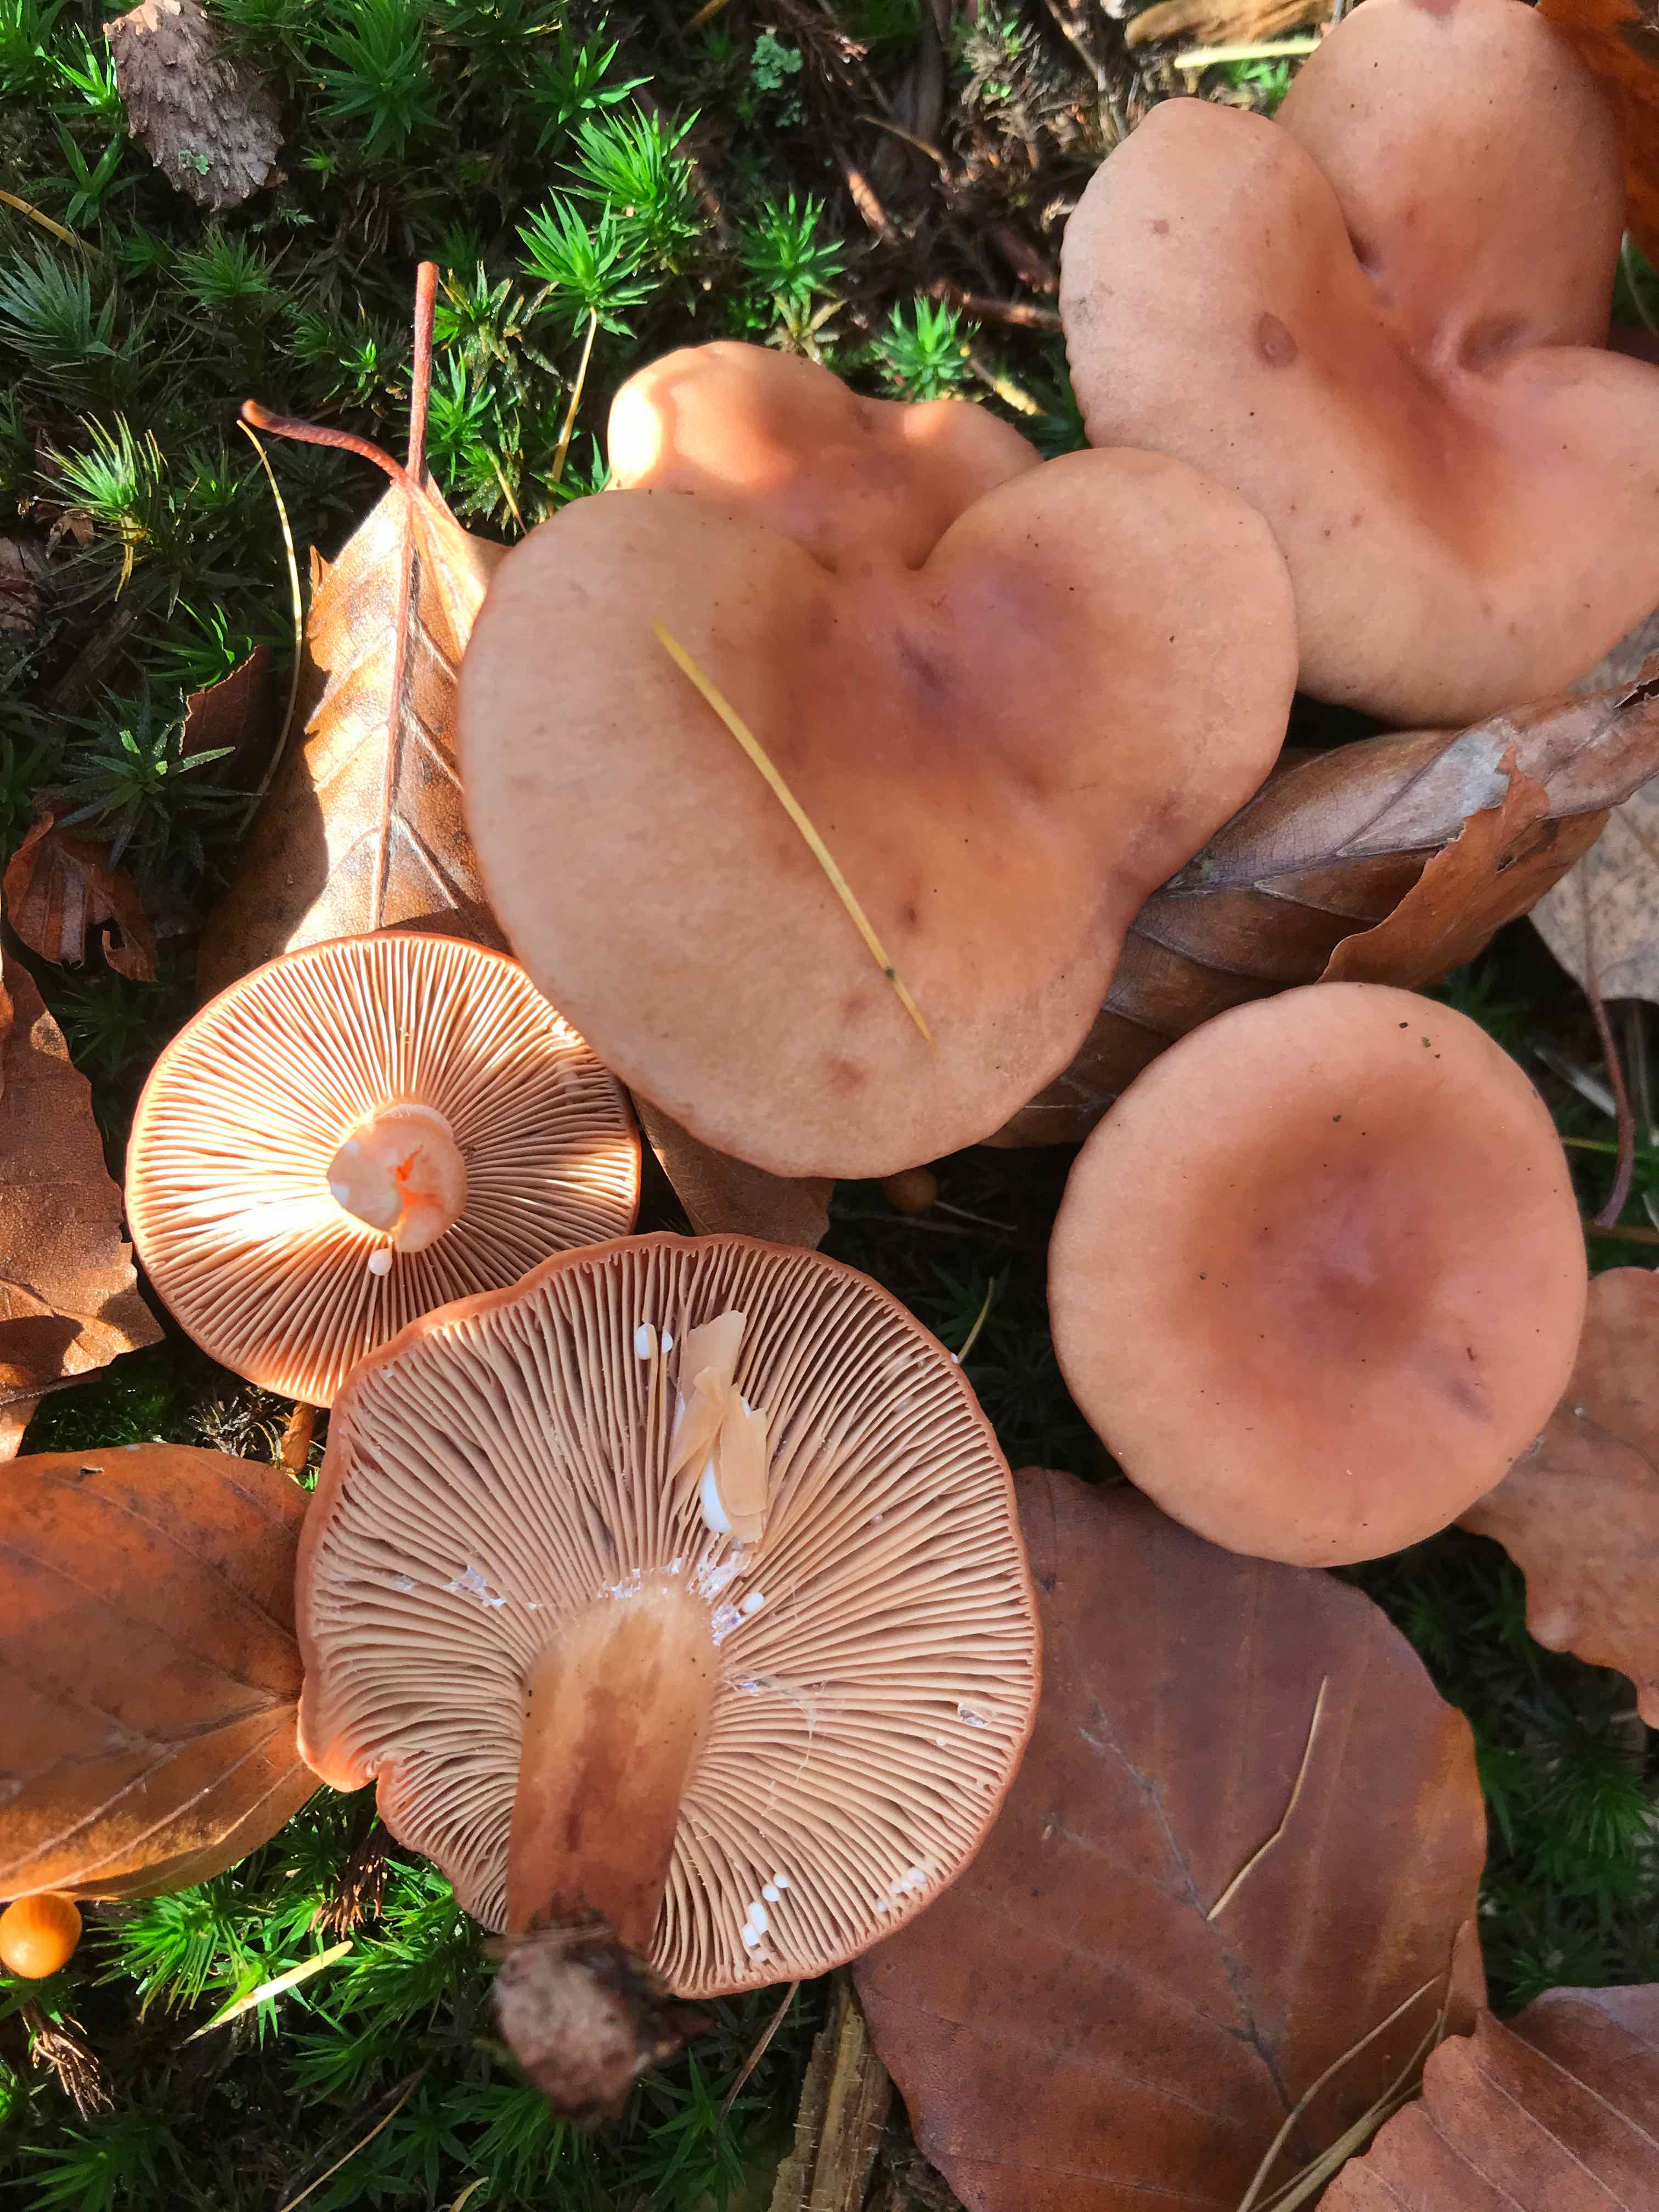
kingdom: Fungi
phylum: Basidiomycota
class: Agaricomycetes
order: Russulales
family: Russulaceae
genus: Lactarius
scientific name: Lactarius subdulcis
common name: sødlig mælkehat
